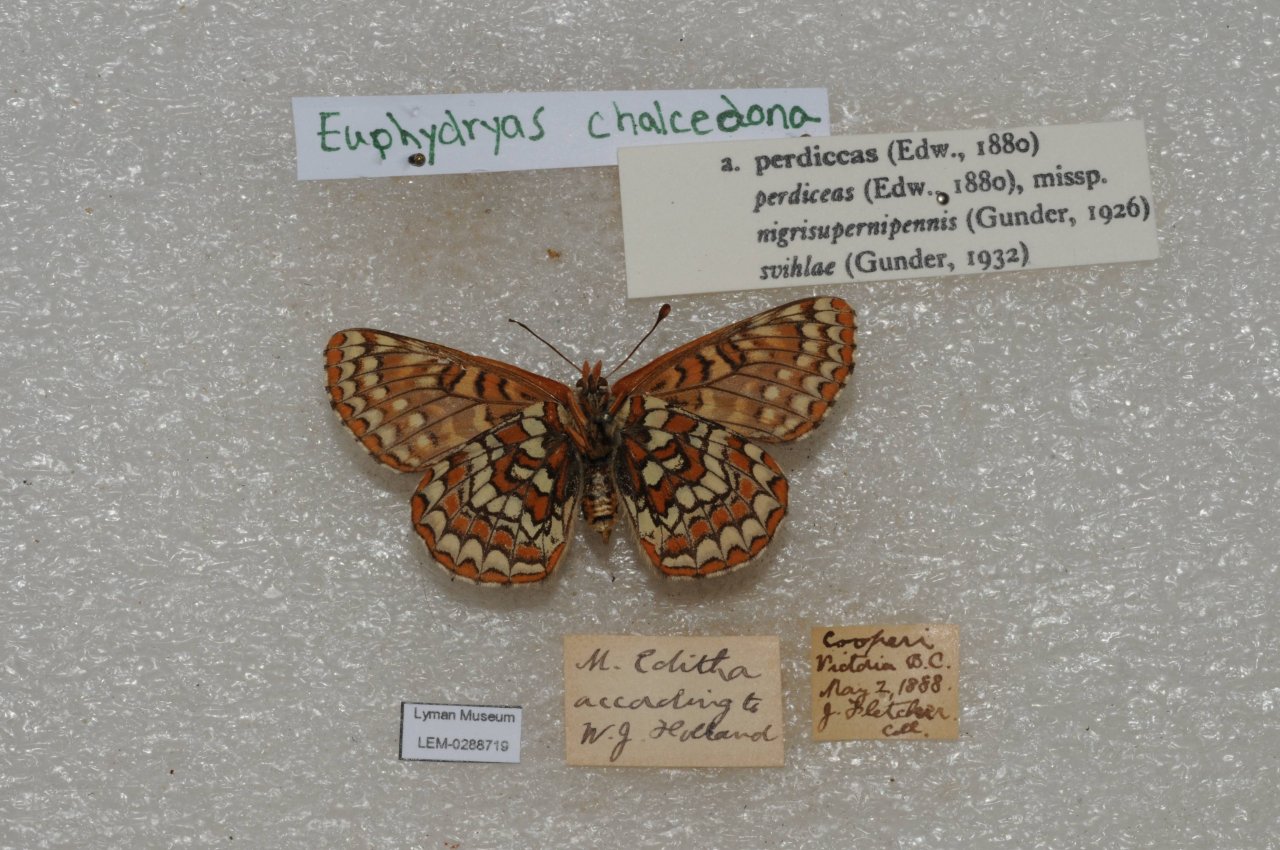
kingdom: Animalia
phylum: Arthropoda
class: Insecta
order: Lepidoptera
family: Nymphalidae
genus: Occidryas
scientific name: Occidryas chalcedona
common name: Chalcedon Checkerspot
